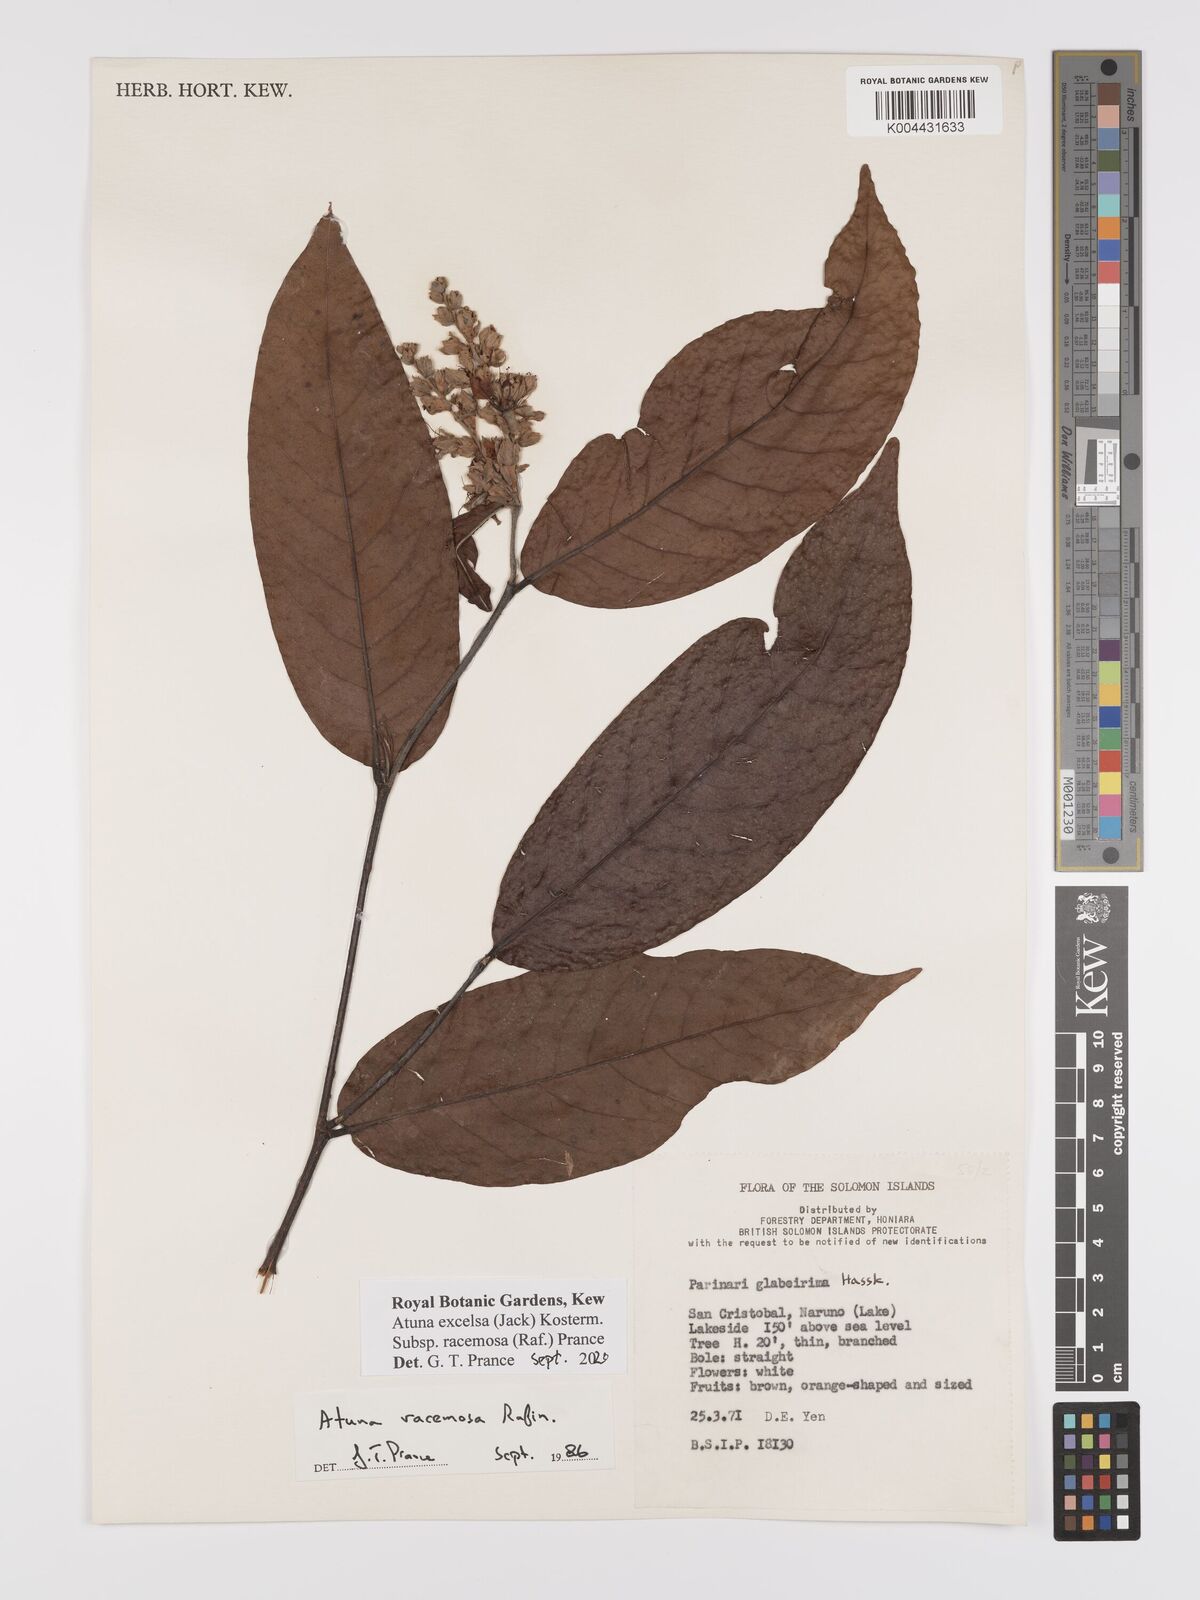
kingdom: Plantae
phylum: Tracheophyta
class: Magnoliopsida
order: Malpighiales
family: Chrysobalanaceae
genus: Atuna
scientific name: Atuna excelsa
